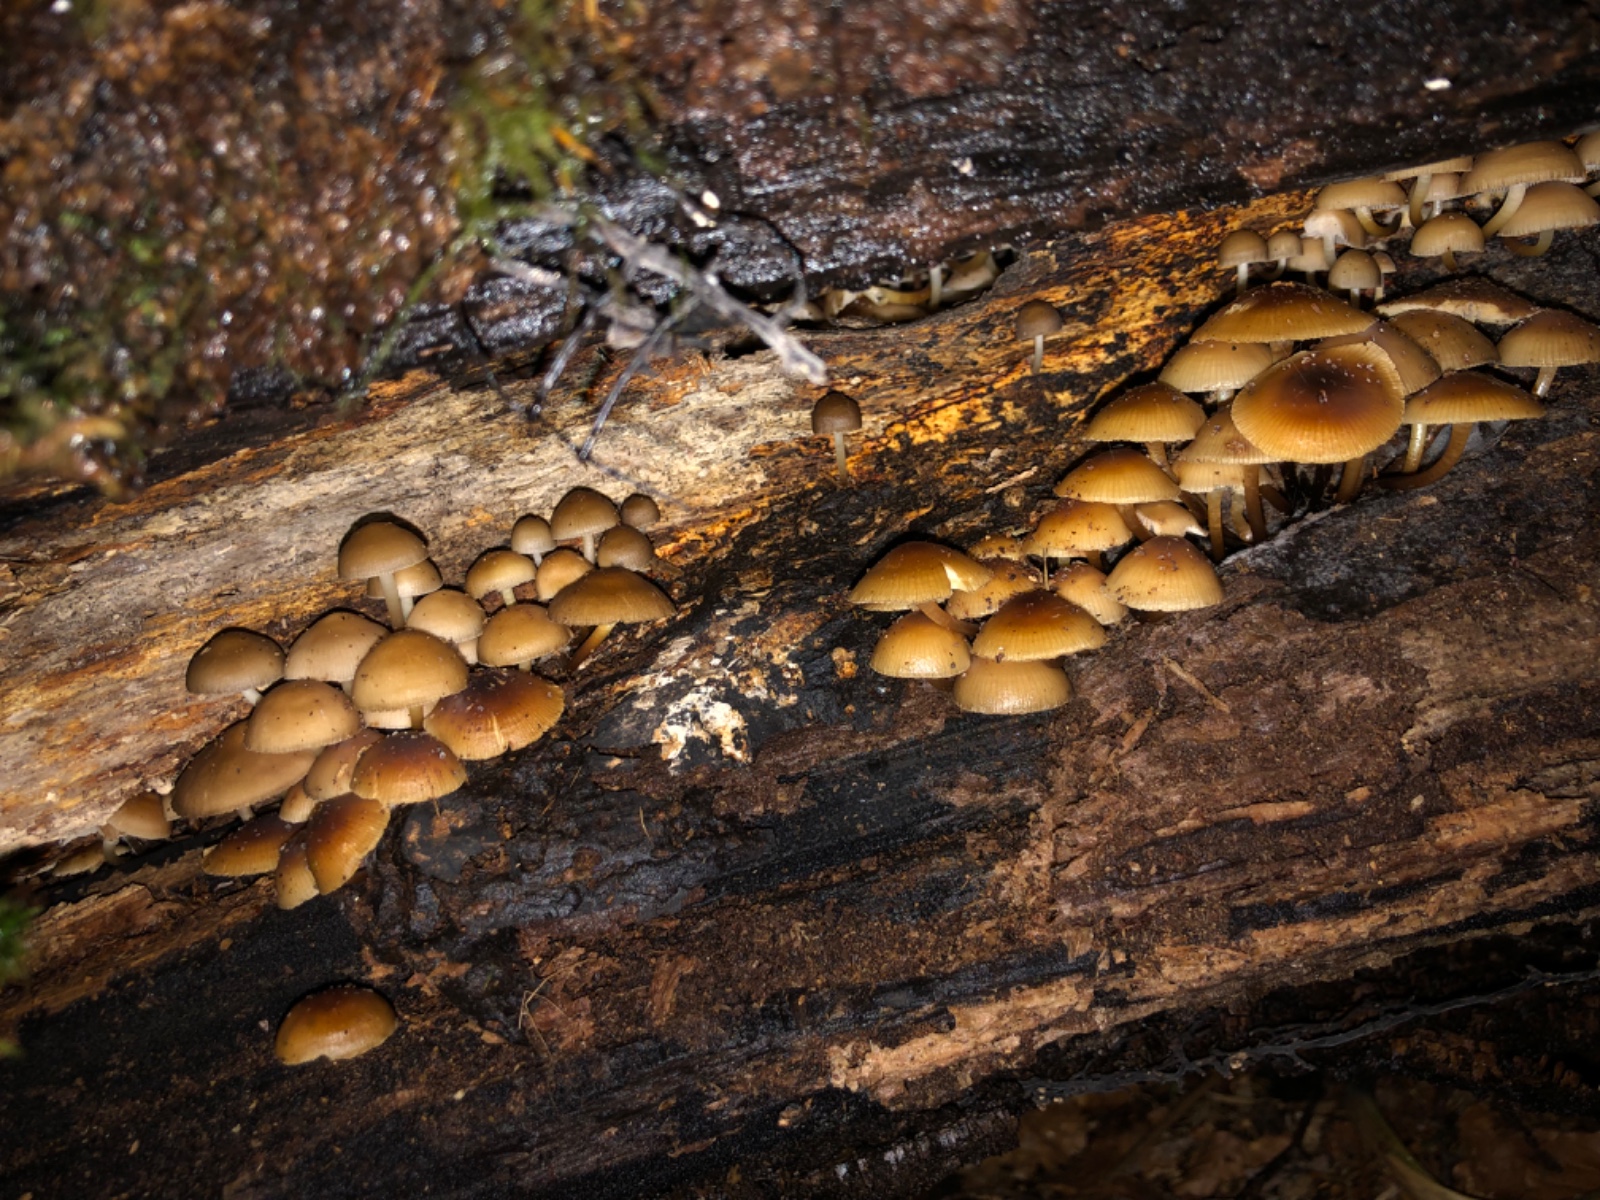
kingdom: Fungi
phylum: Basidiomycota
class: Agaricomycetes
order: Agaricales
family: Mycenaceae
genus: Mycena
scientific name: Mycena tintinnabulum
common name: vinter-huesvamp
